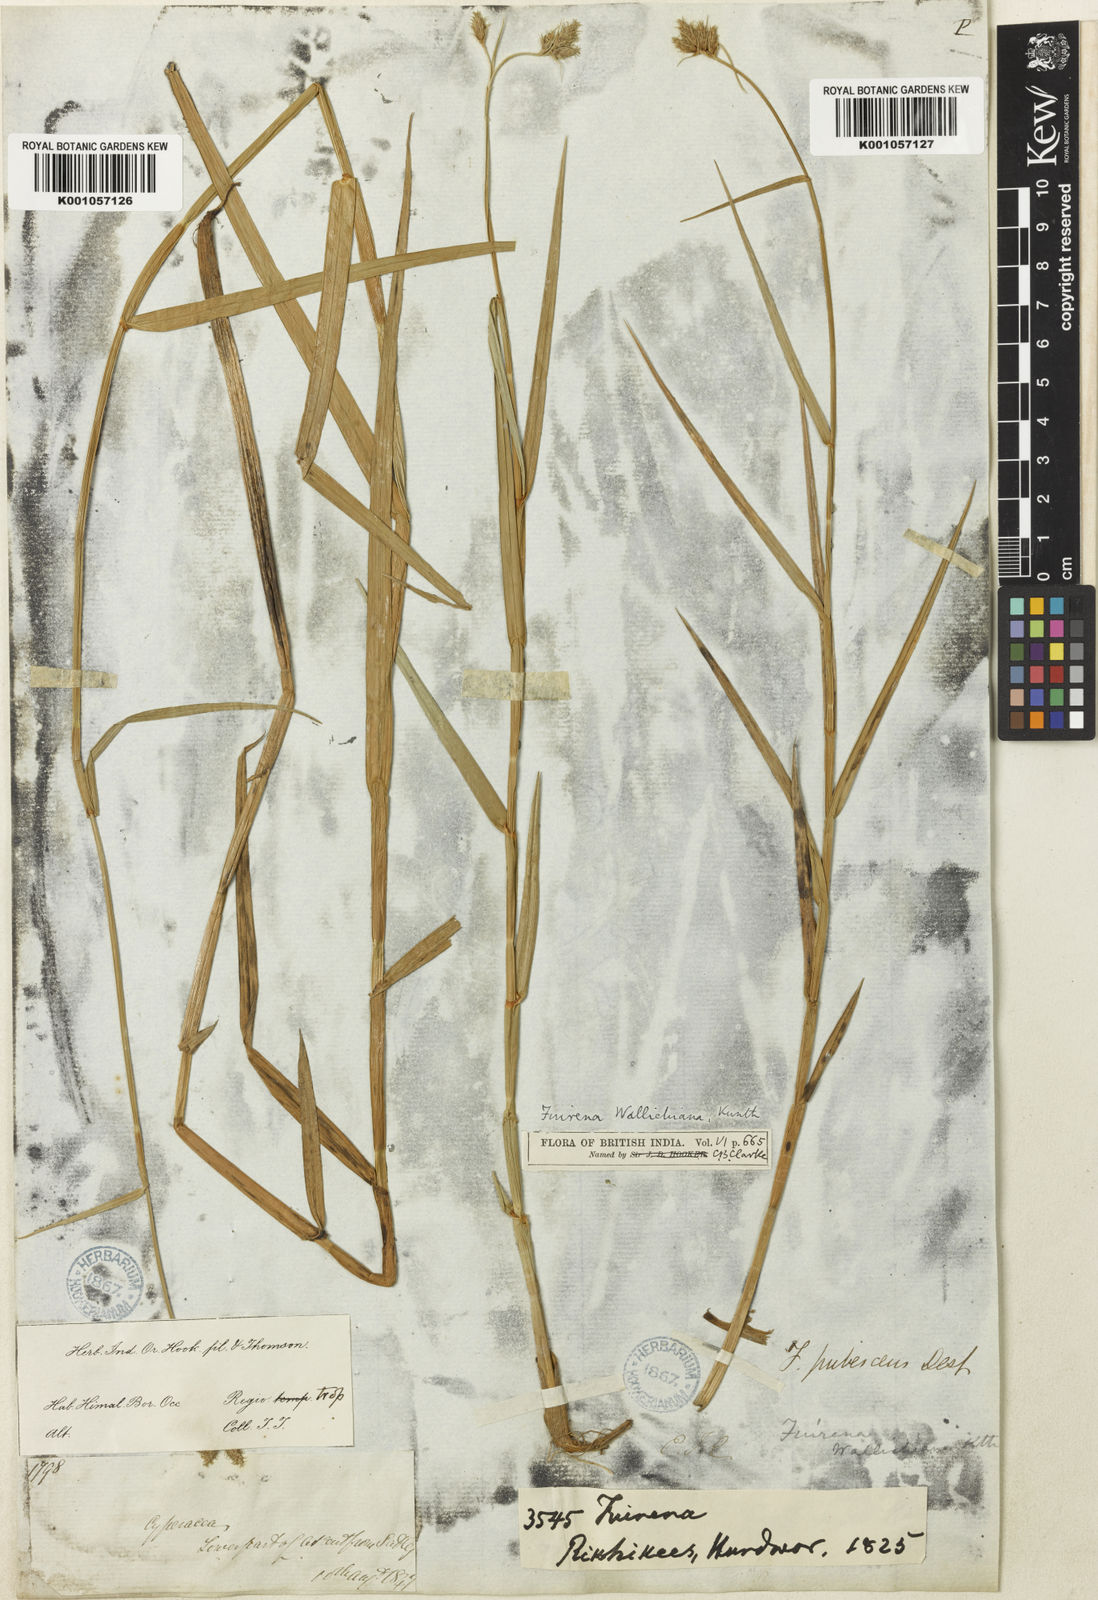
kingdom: Plantae
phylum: Tracheophyta
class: Liliopsida
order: Poales
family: Cyperaceae
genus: Fuirena
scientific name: Fuirena cuspidata
